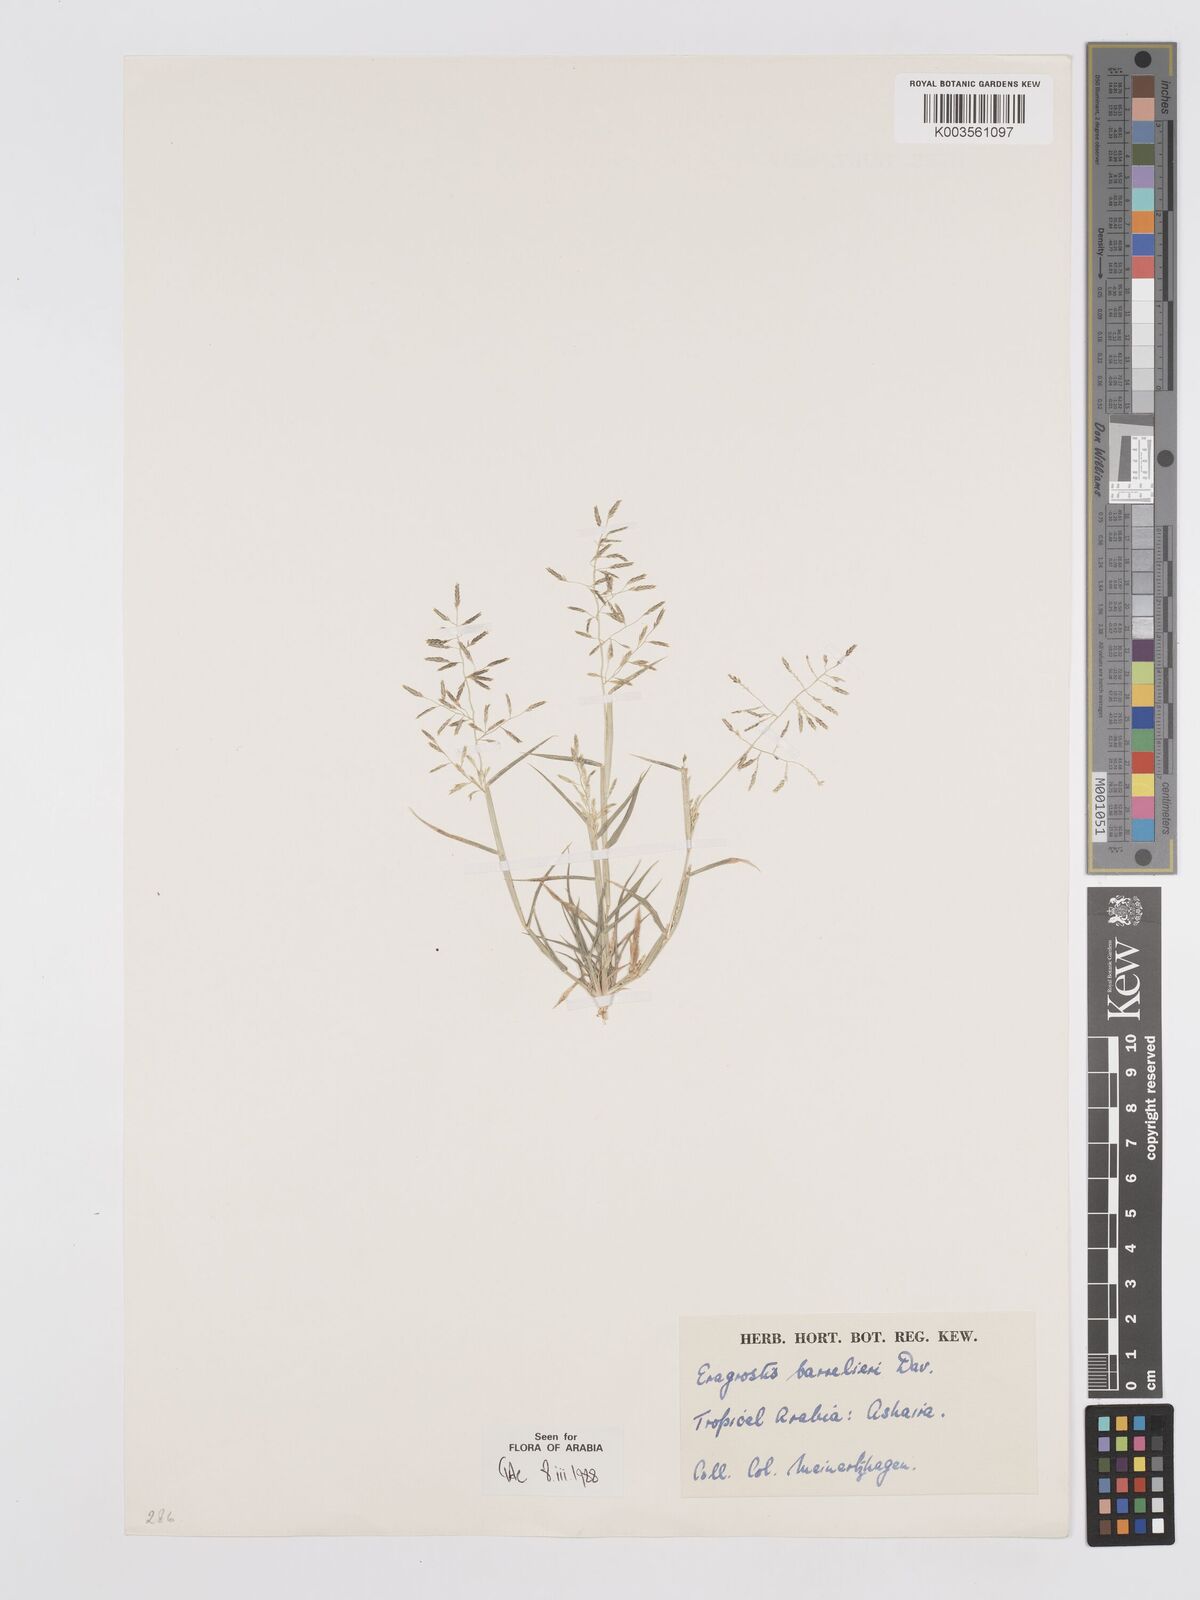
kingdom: Plantae
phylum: Tracheophyta
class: Liliopsida
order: Poales
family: Poaceae
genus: Eragrostis
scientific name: Eragrostis barrelieri
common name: Mediterranean lovegrass
